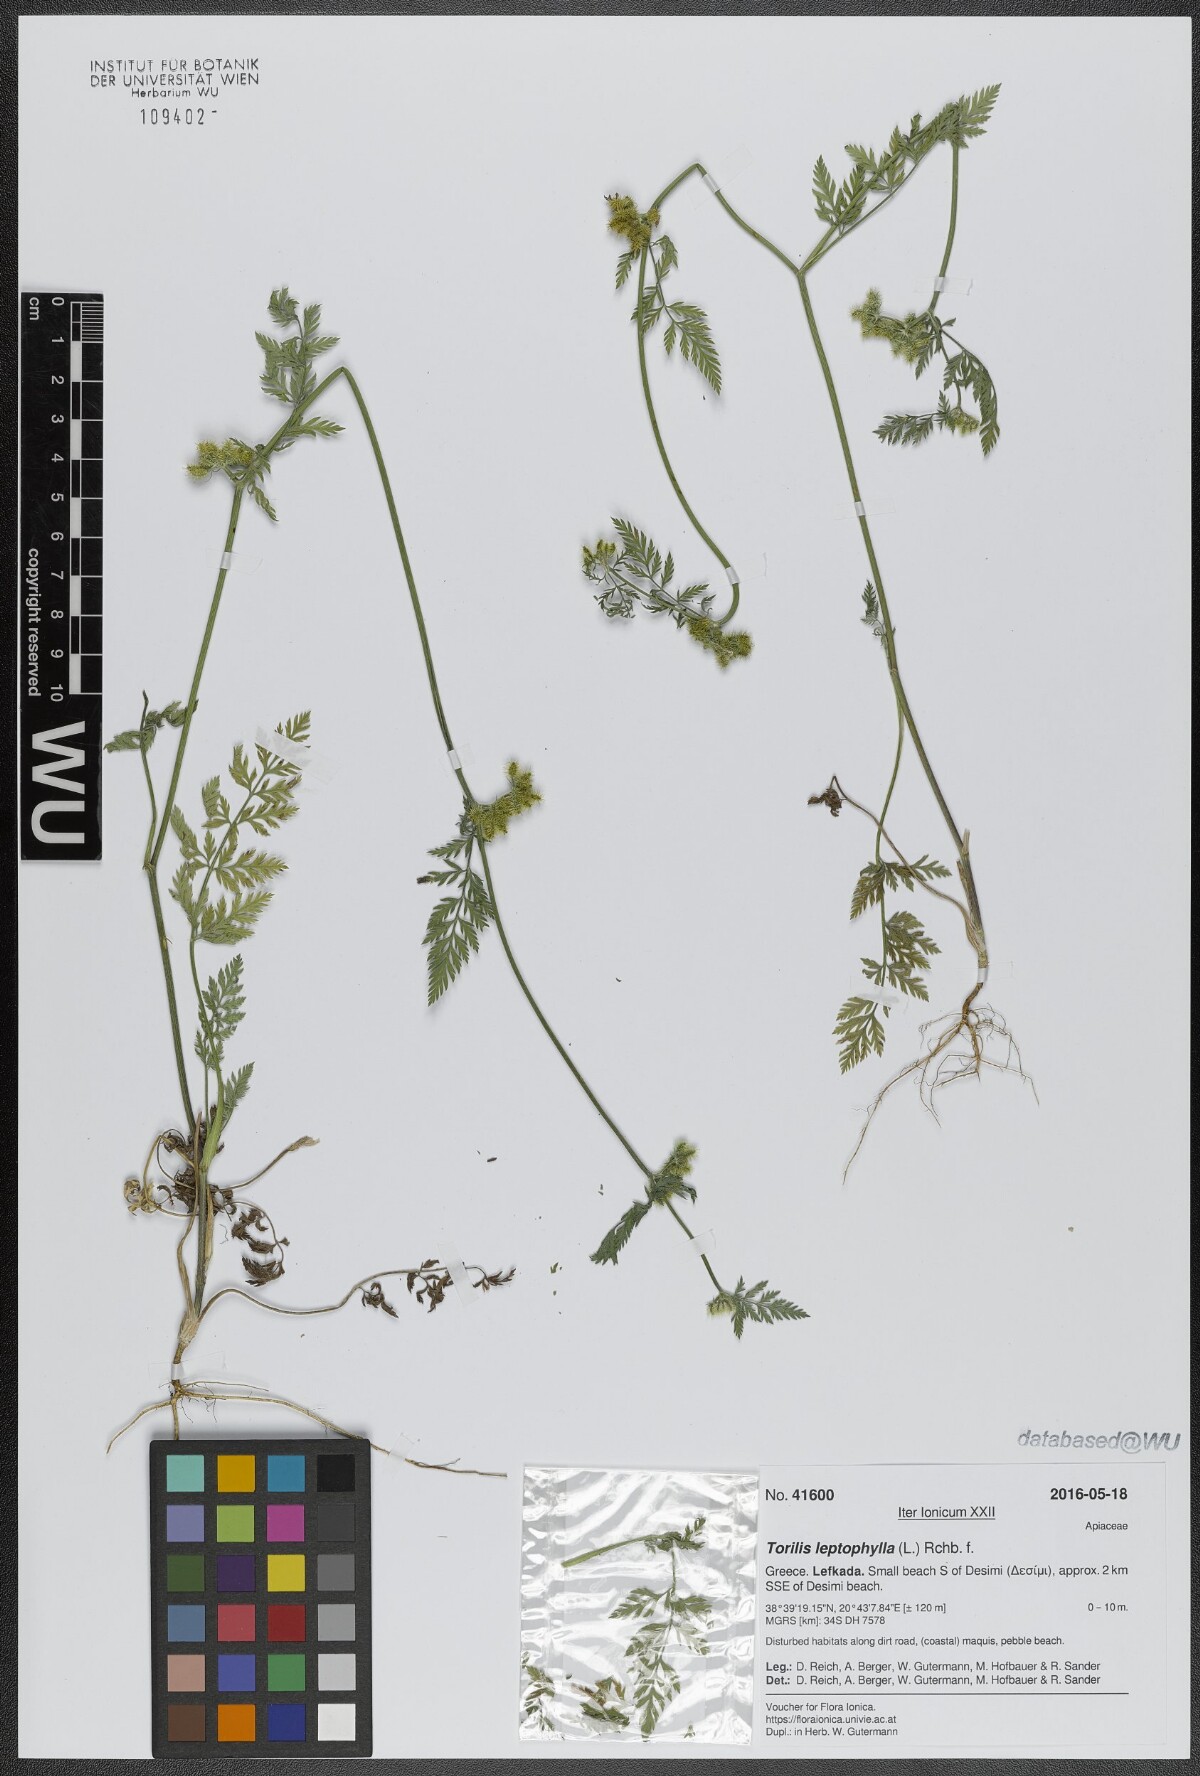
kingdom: Plantae
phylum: Tracheophyta
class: Magnoliopsida
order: Apiales
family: Apiaceae
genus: Torilis
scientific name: Torilis leptophylla
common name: Bristlefruit hedgeparsley
